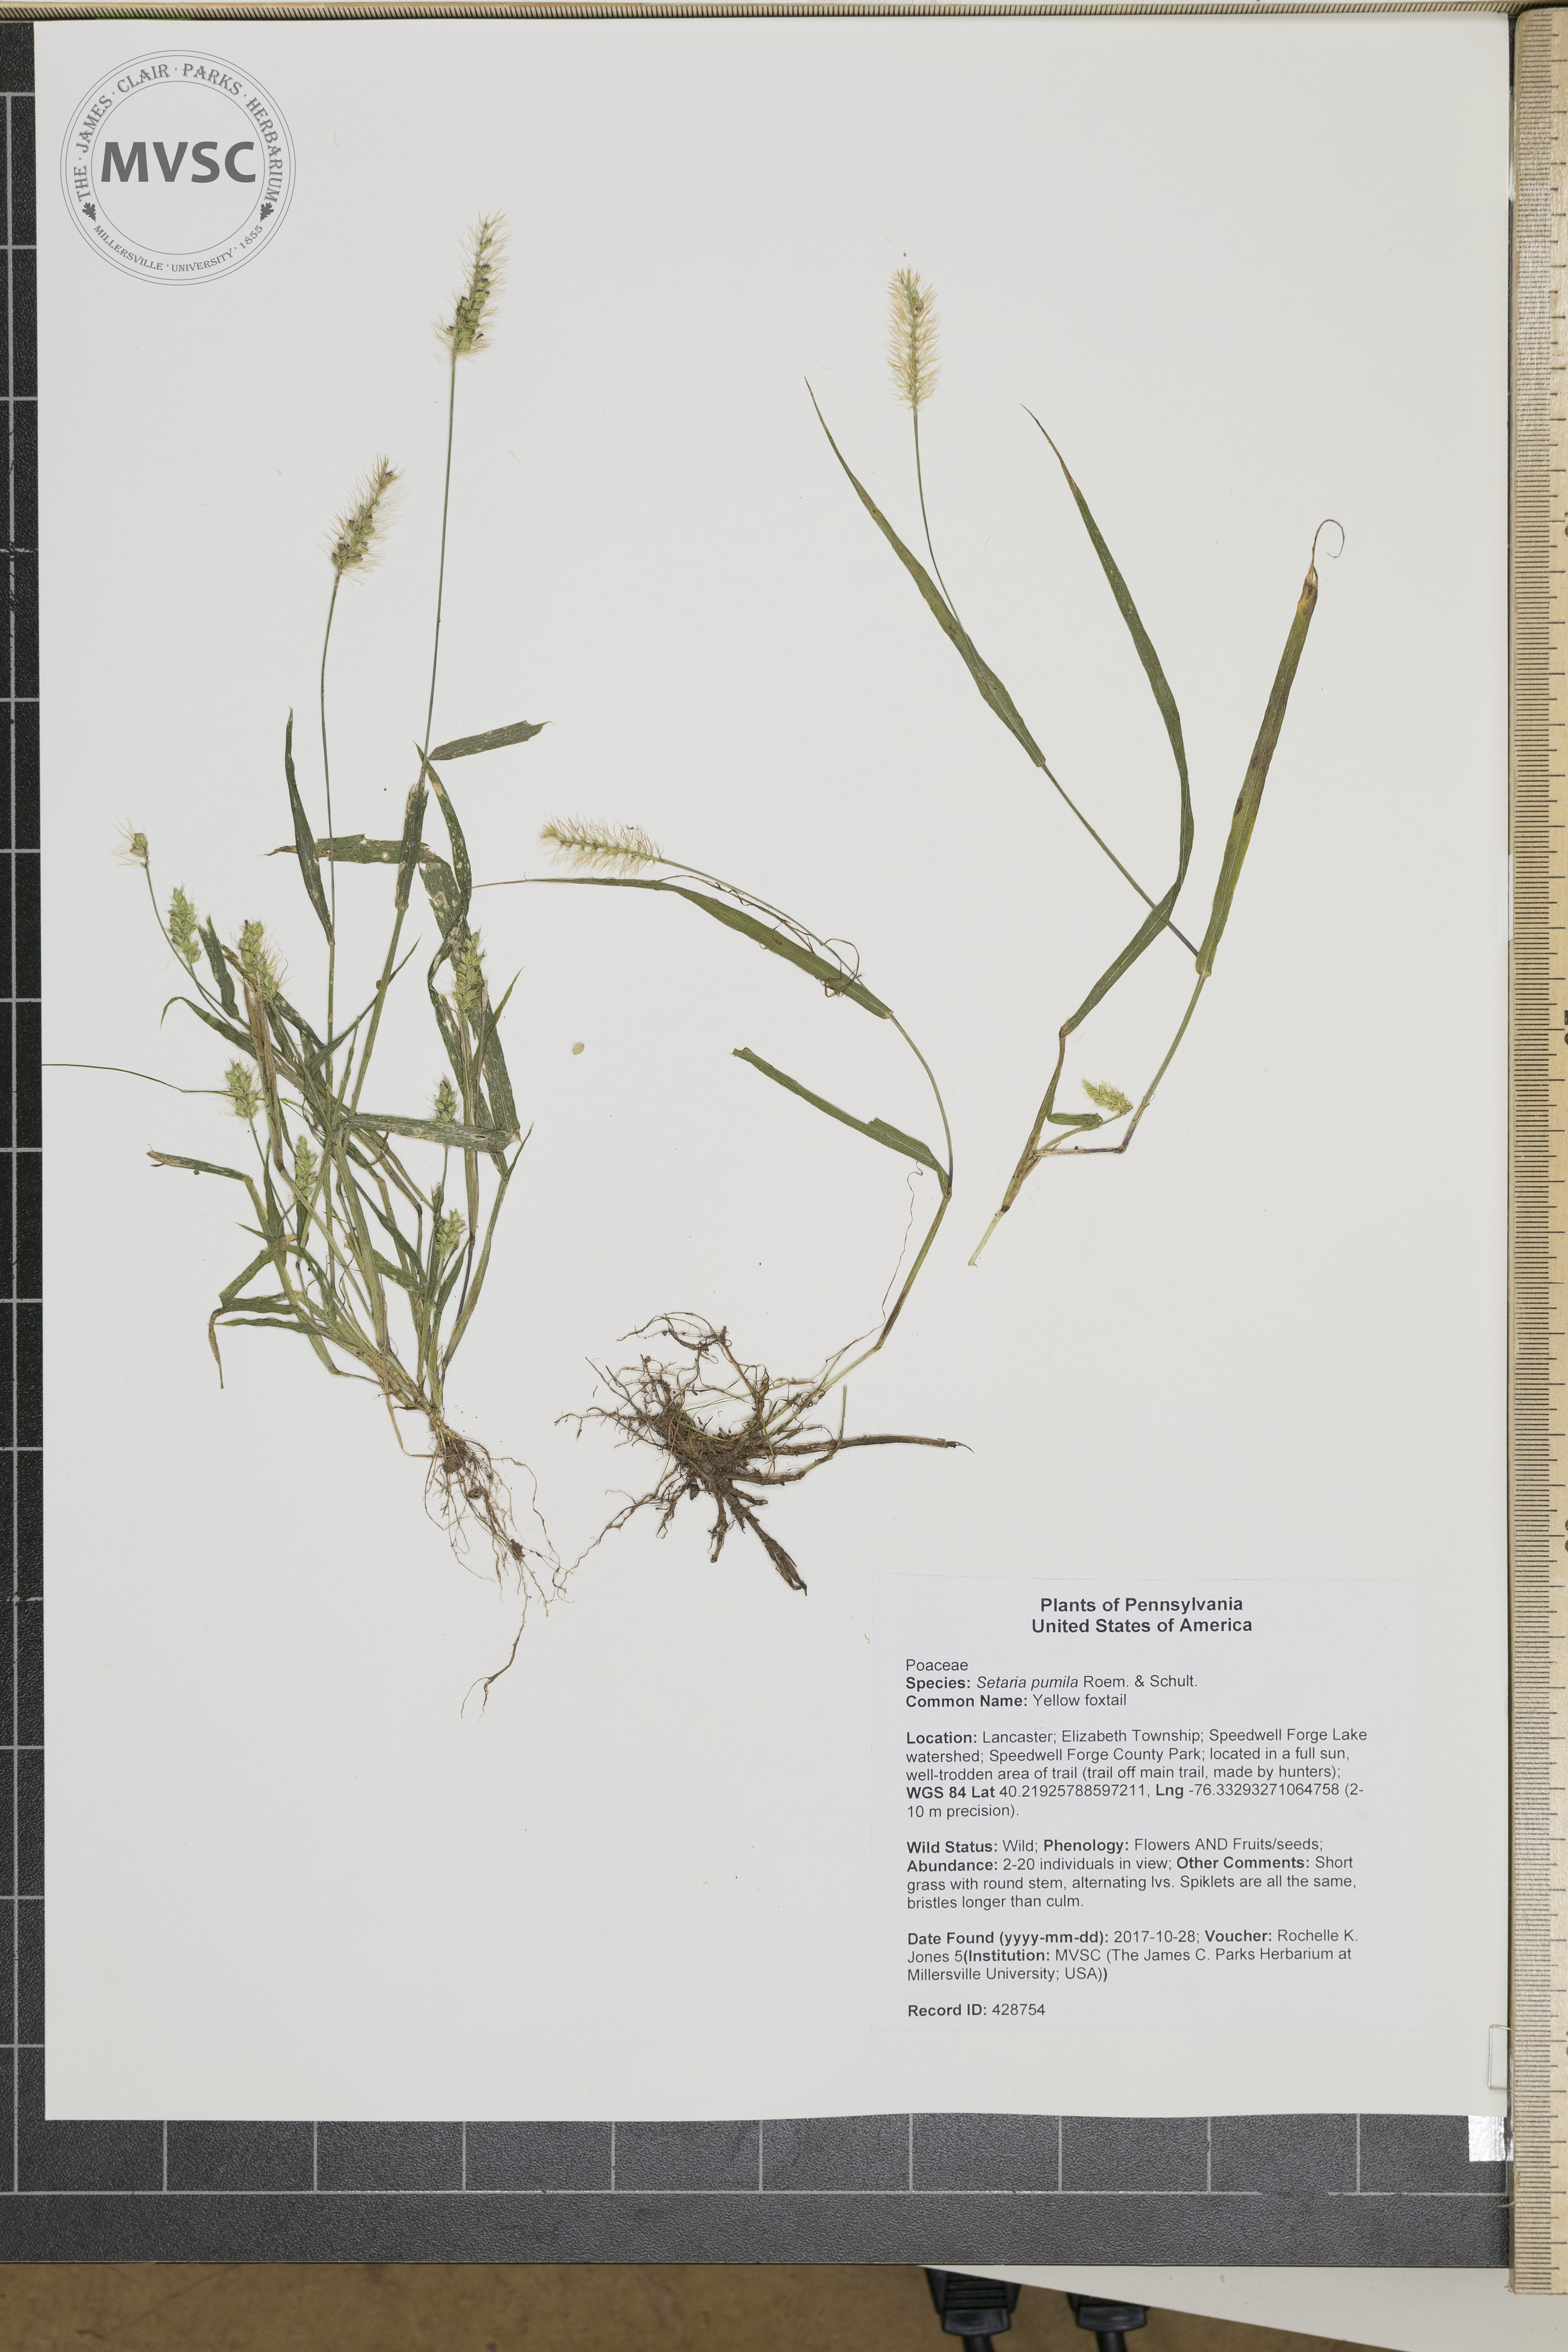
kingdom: Plantae
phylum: Tracheophyta
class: Liliopsida
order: Poales
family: Poaceae
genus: Setaria
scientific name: Setaria pumila
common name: Yellow foxtail
